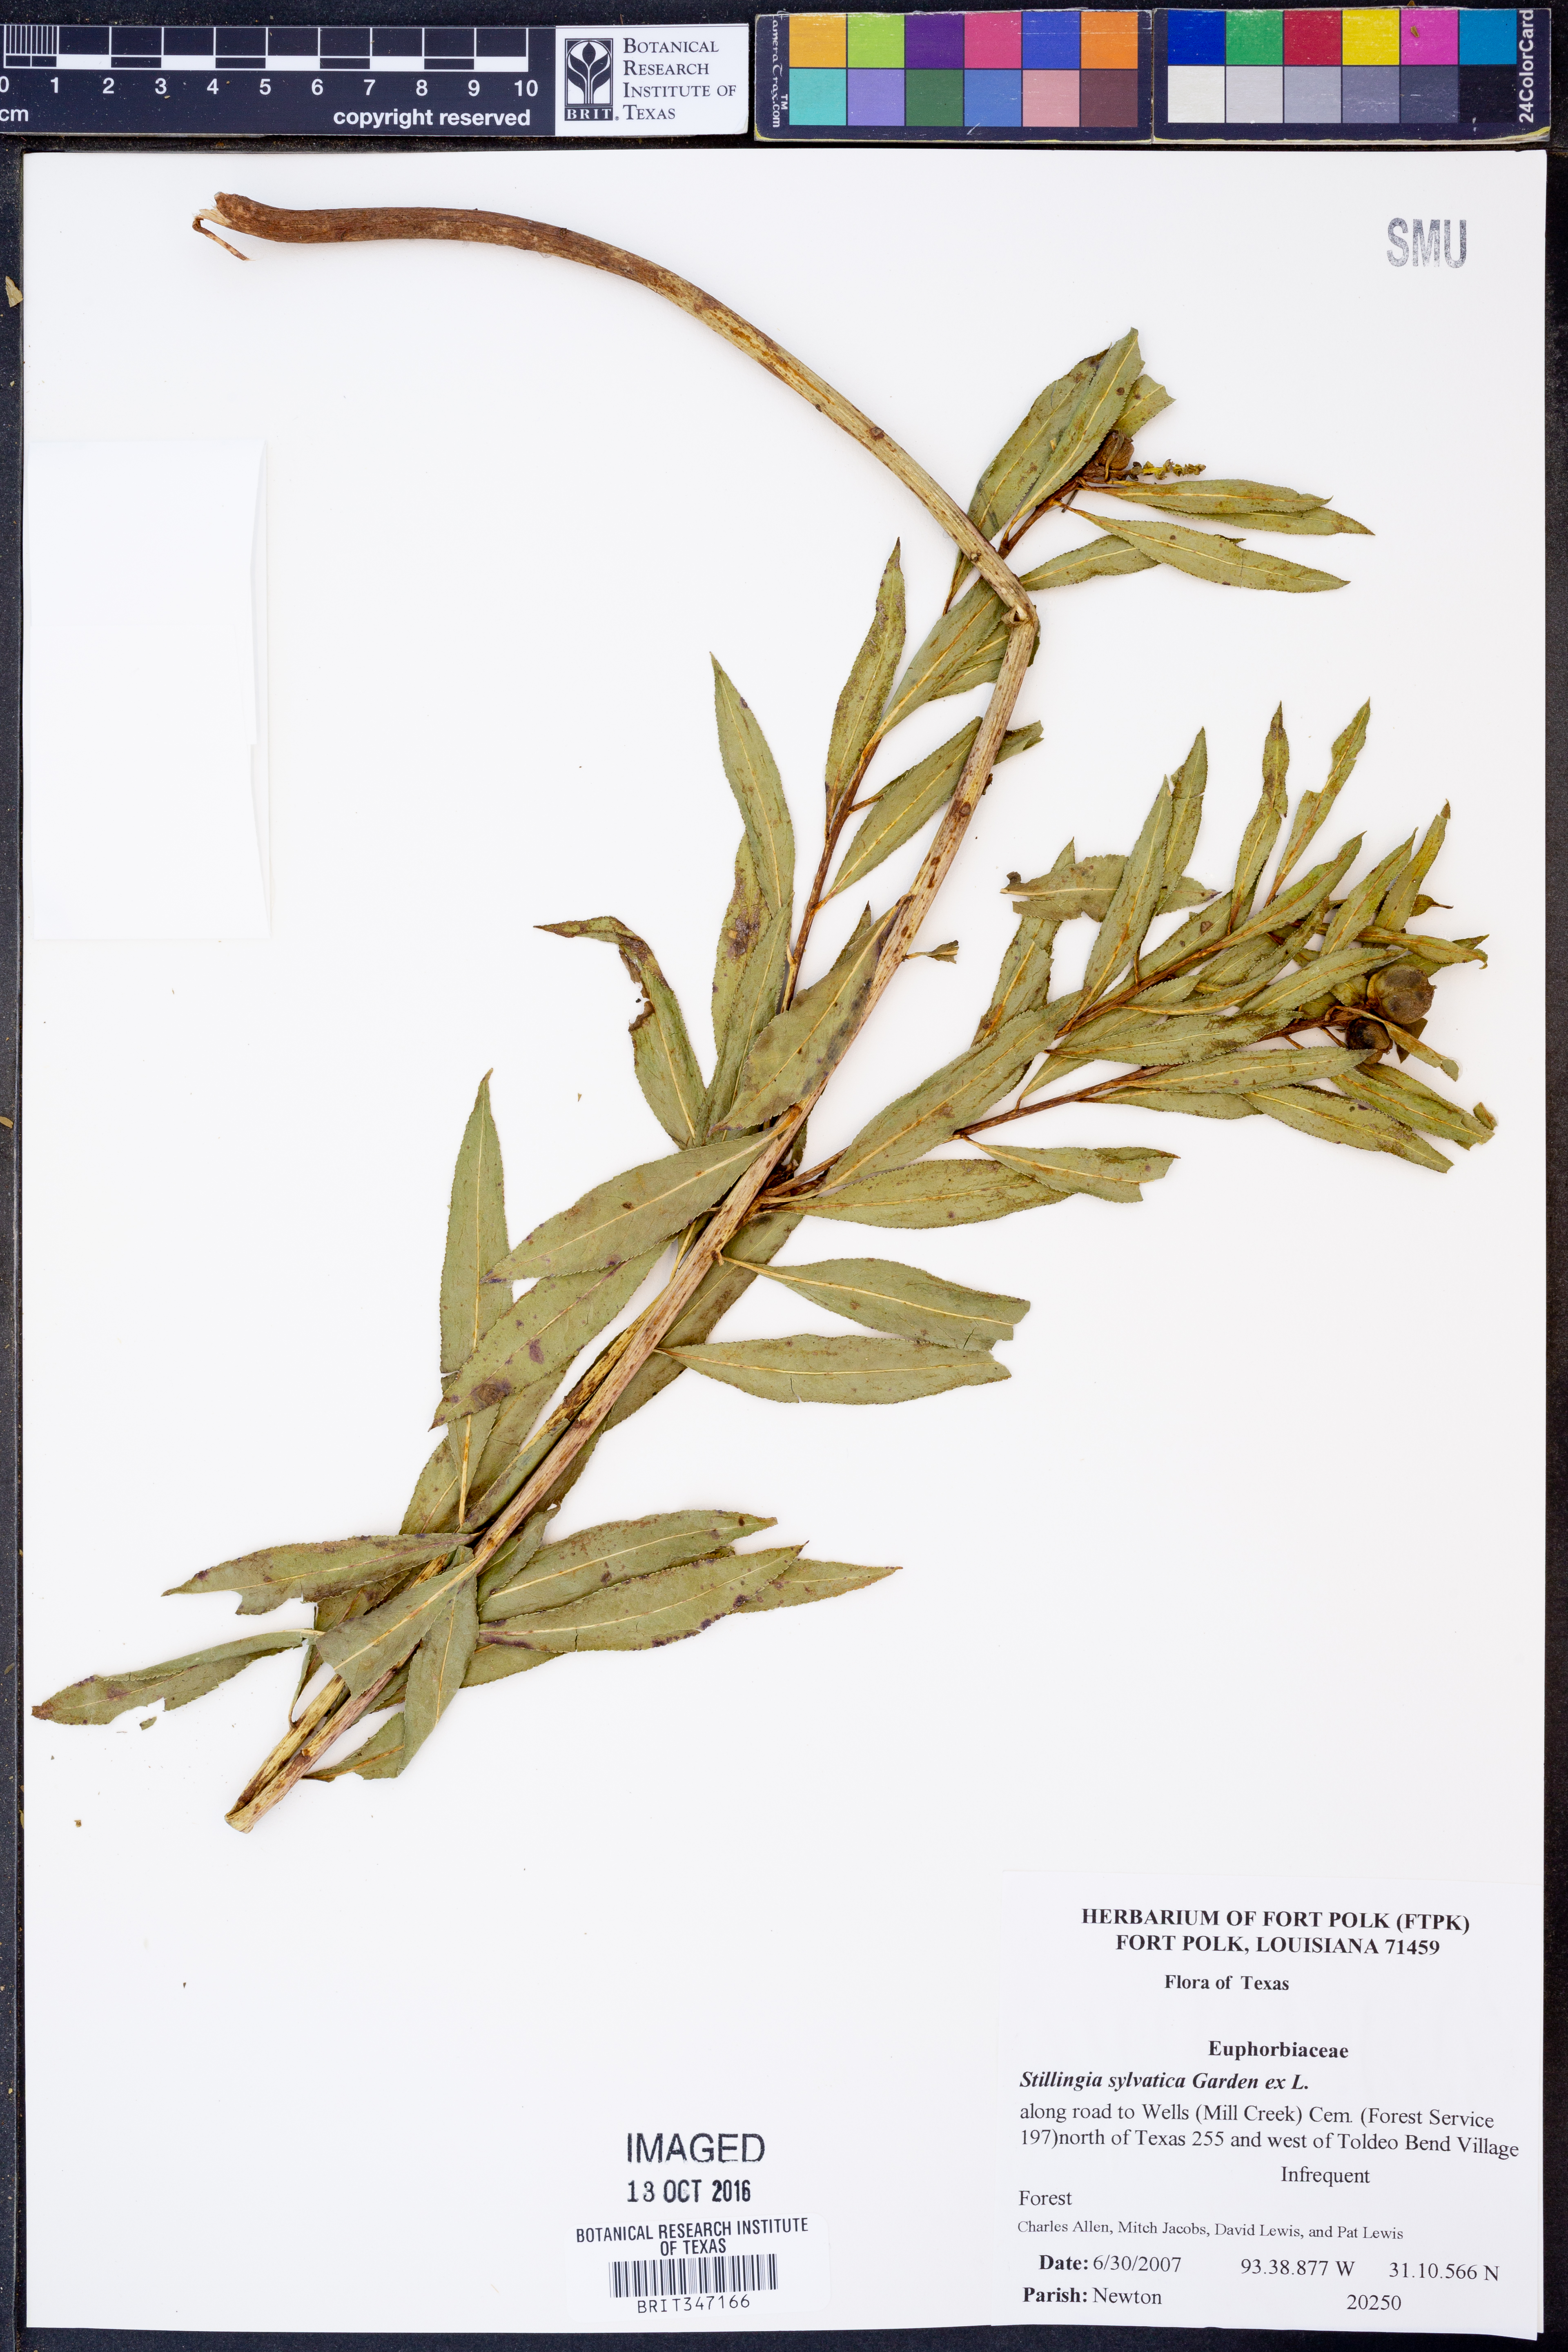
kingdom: Plantae
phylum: Tracheophyta
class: Magnoliopsida
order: Malpighiales
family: Euphorbiaceae
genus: Stillingia
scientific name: Stillingia sylvatica
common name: Queen's-delight
